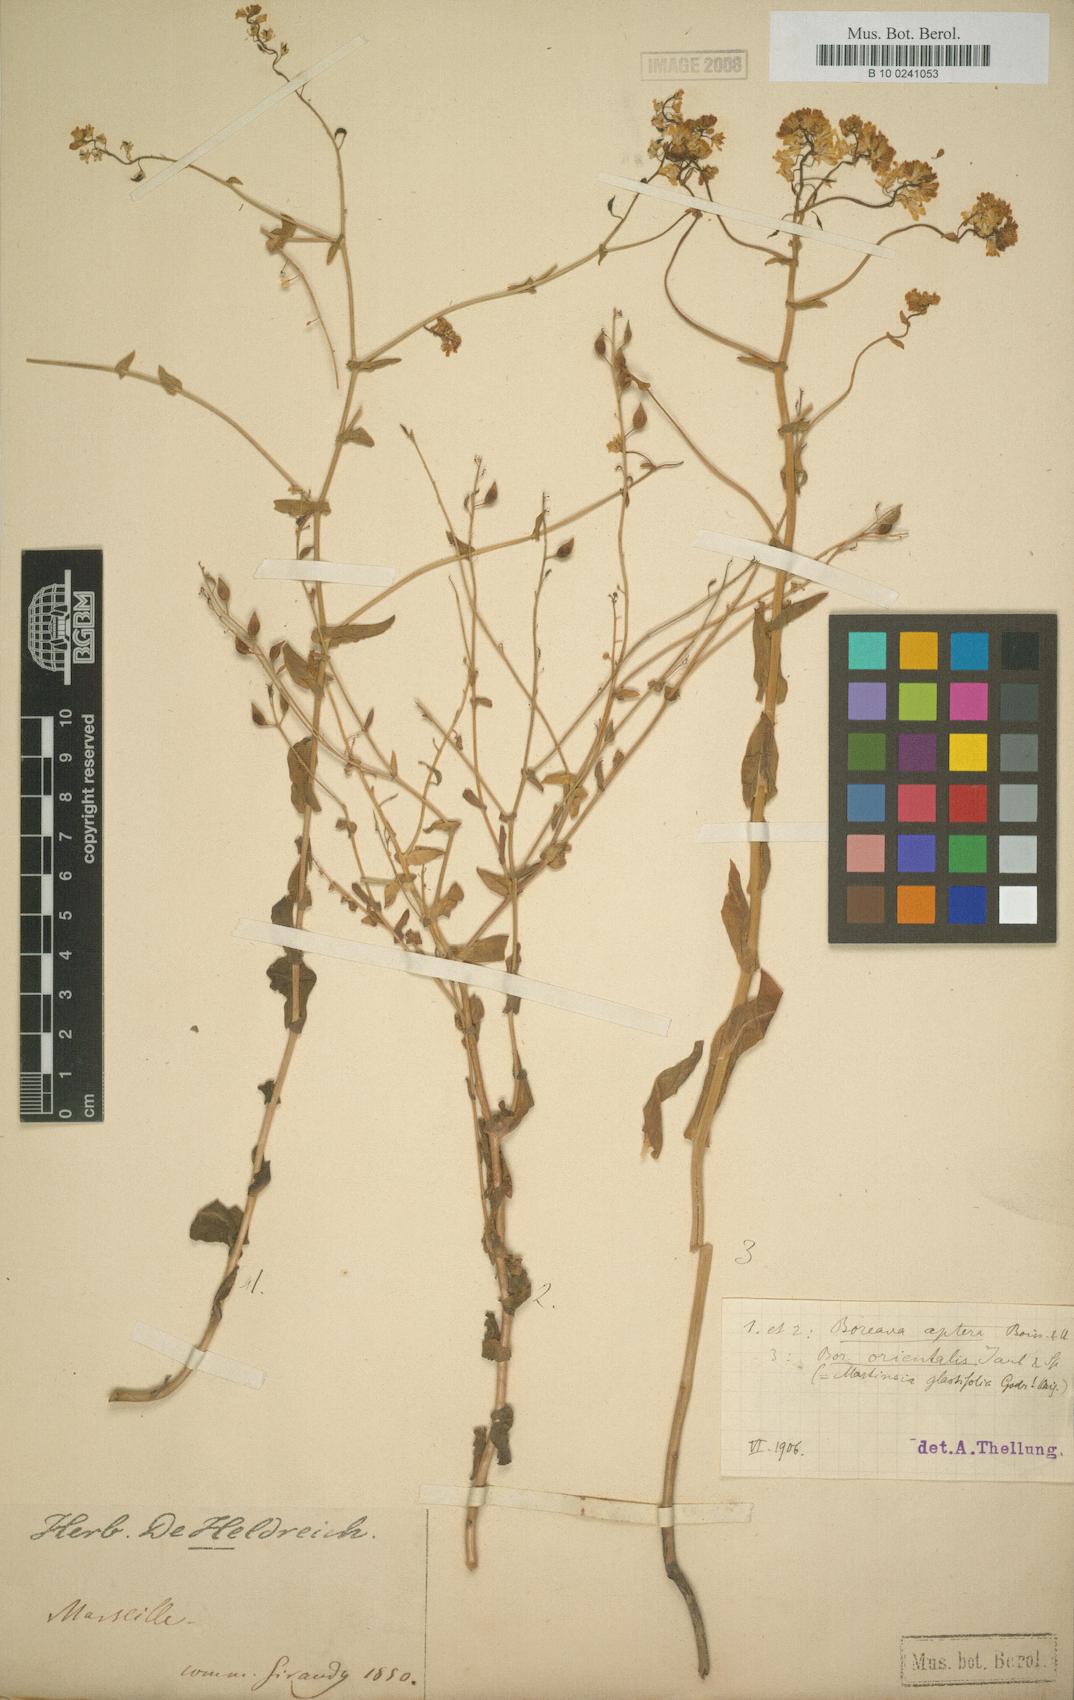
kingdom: Plantae
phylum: Tracheophyta
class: Magnoliopsida
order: Brassicales
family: Brassicaceae
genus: Isatis
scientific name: Isatis aptera
